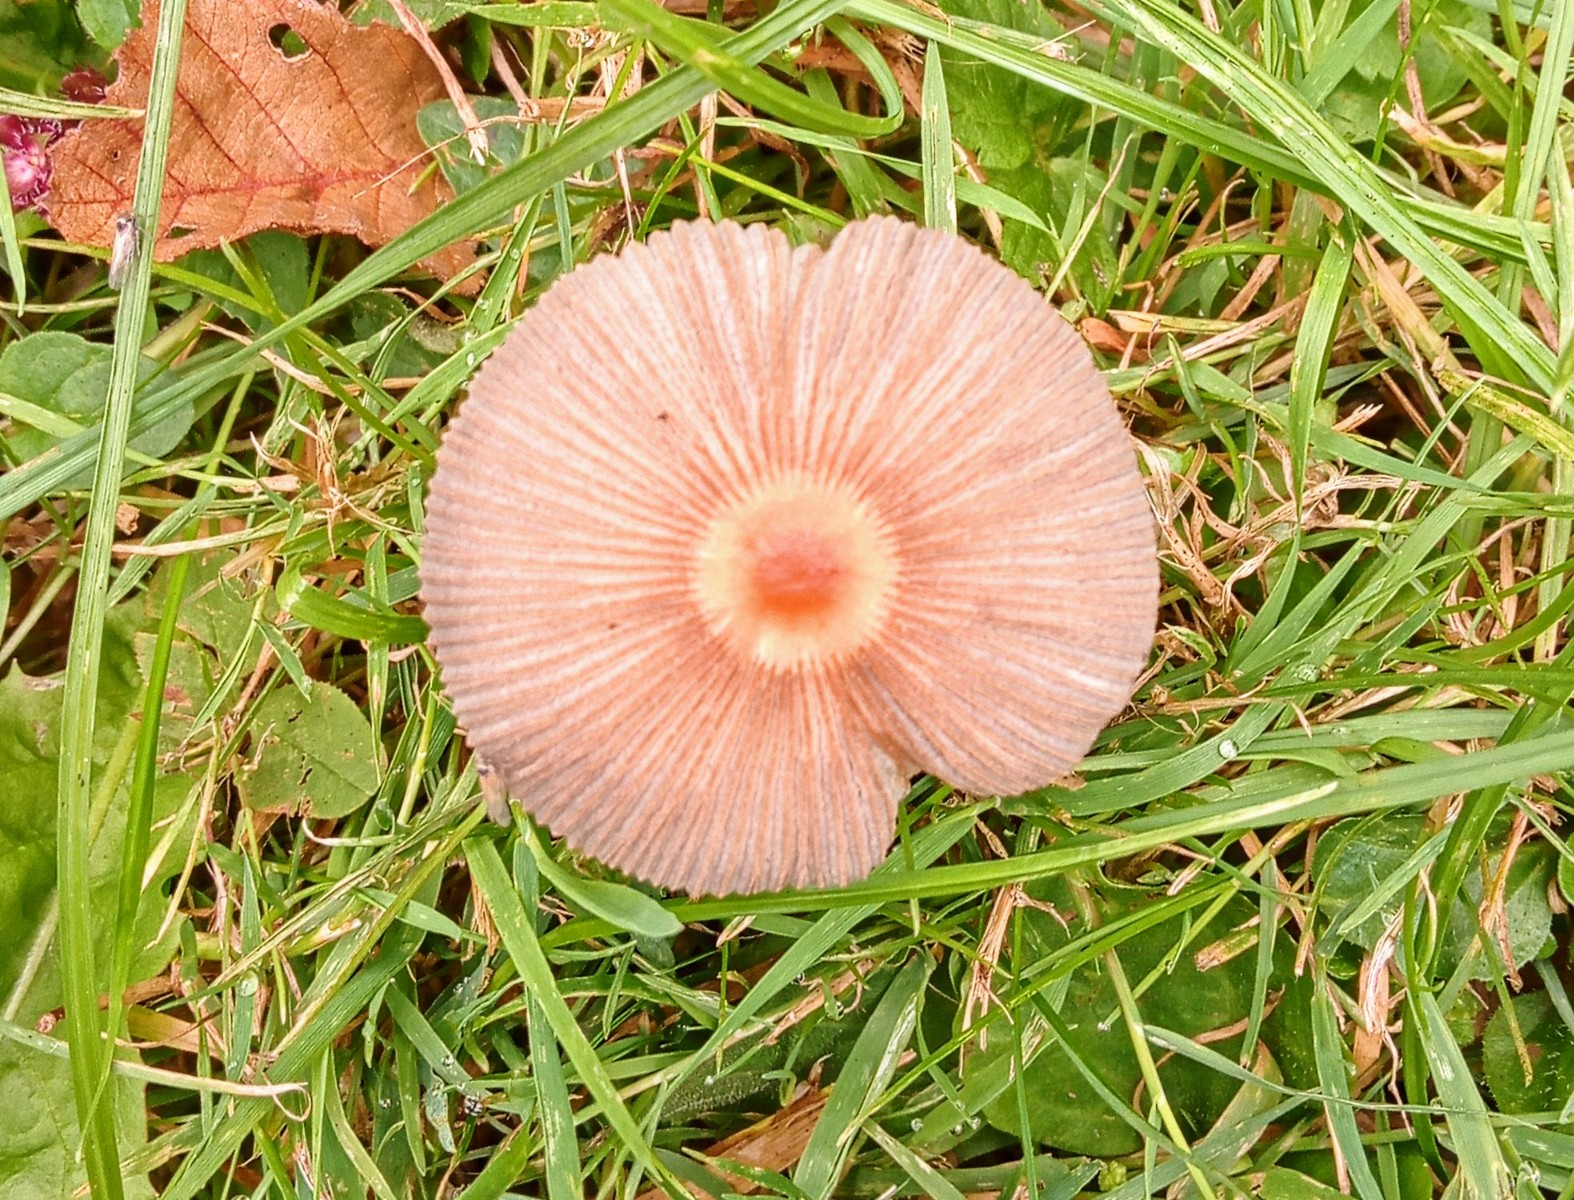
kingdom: Fungi
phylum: Basidiomycota
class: Agaricomycetes
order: Agaricales
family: Psathyrellaceae
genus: Parasola
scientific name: Parasola
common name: hjulhat
